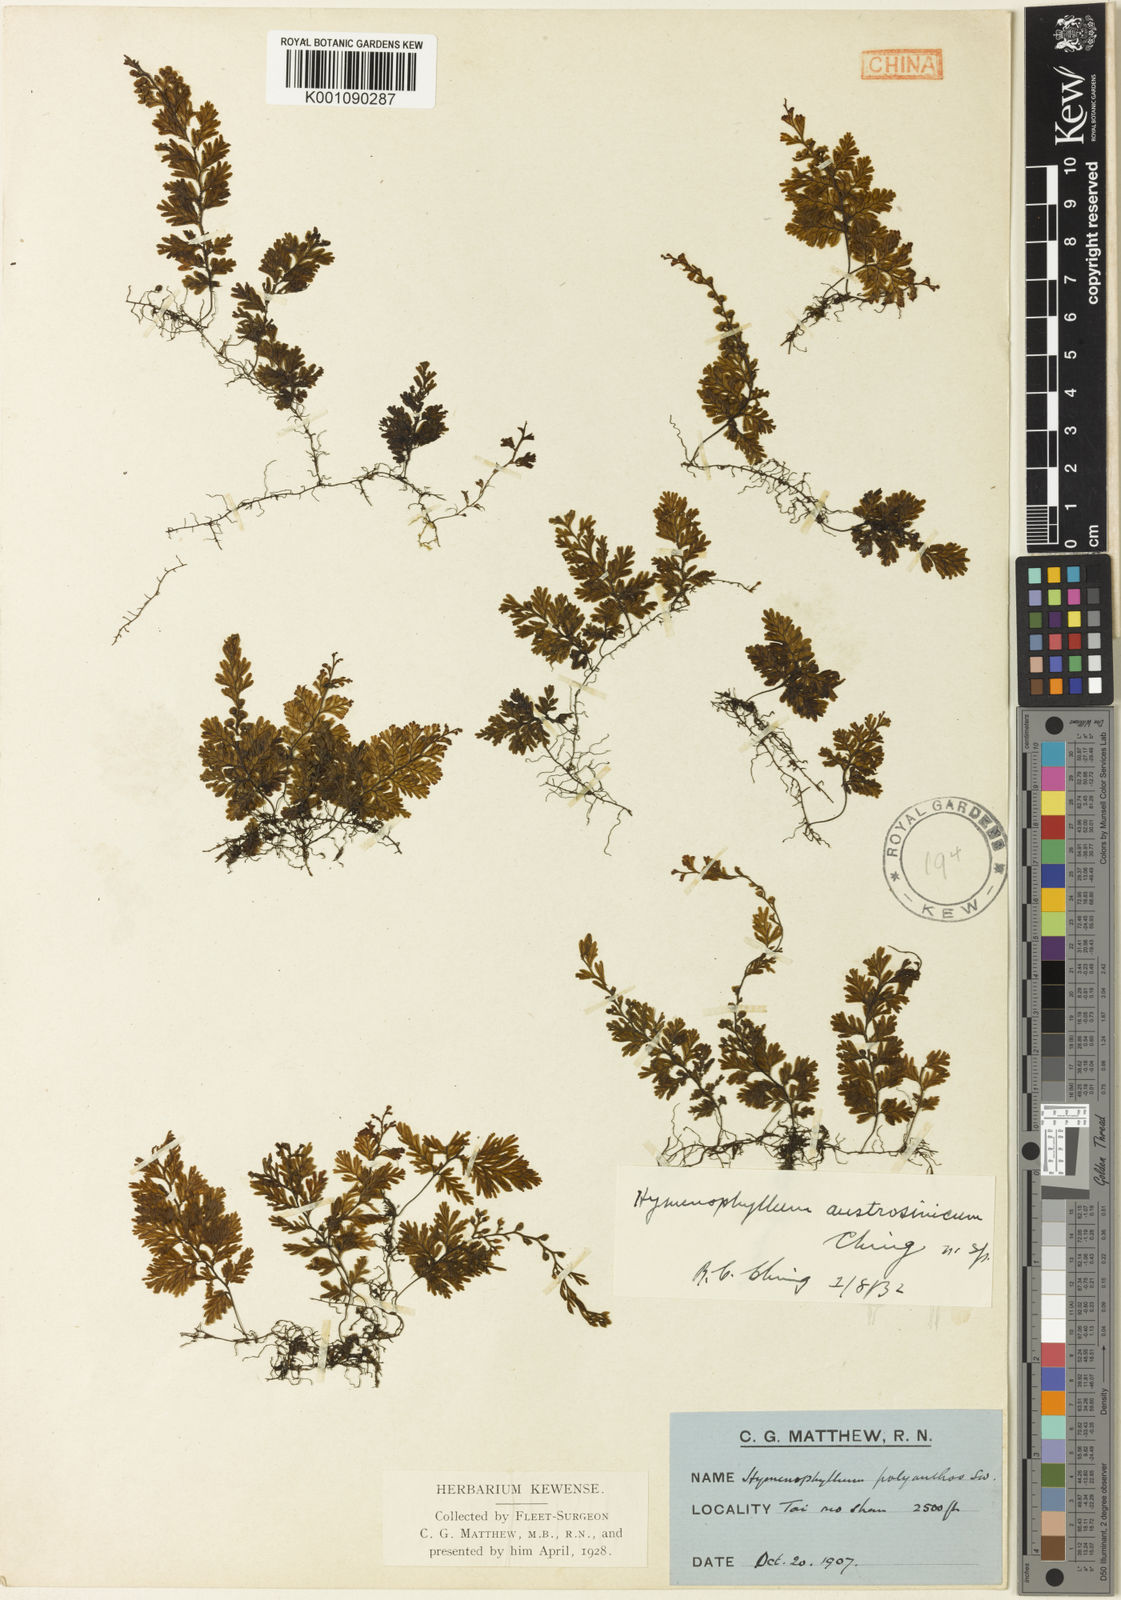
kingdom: Plantae
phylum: Tracheophyta
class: Polypodiopsida
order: Hymenophyllales
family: Hymenophyllaceae
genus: Hymenophyllum
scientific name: Hymenophyllum exsertum
